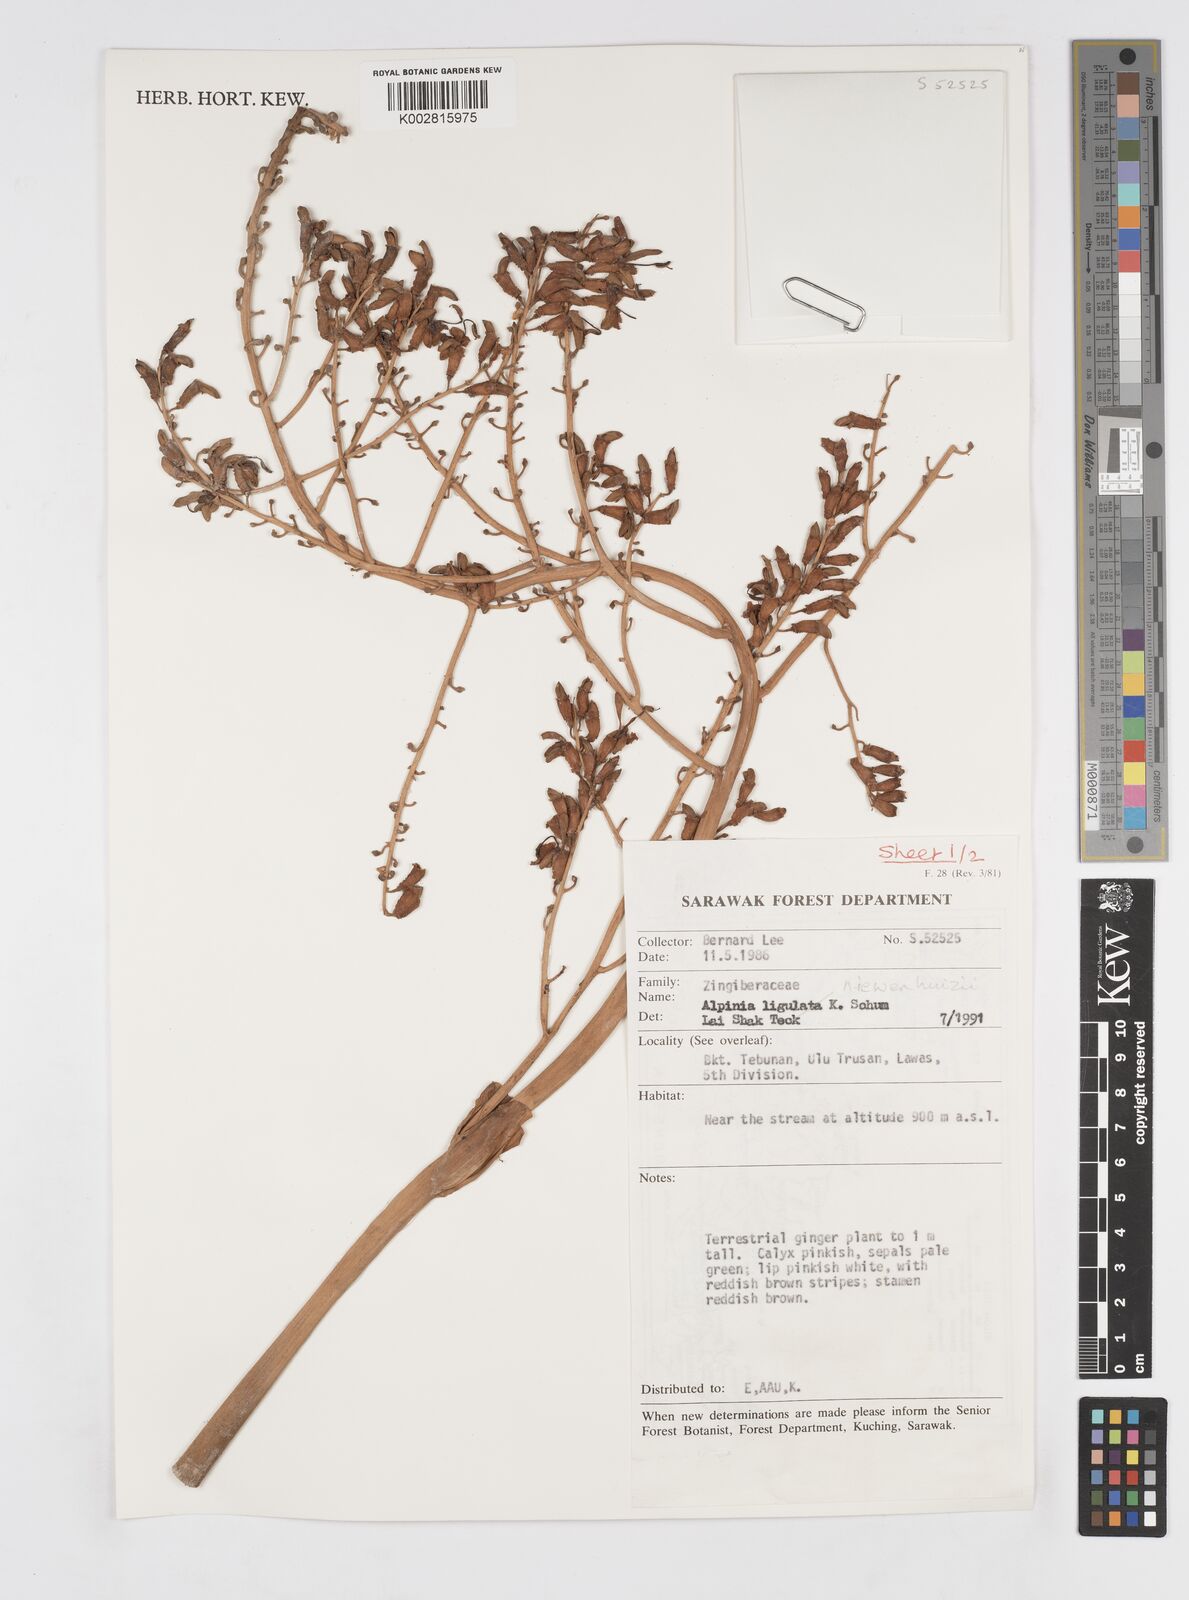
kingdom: Plantae
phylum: Tracheophyta
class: Liliopsida
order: Zingiberales
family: Zingiberaceae
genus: Alpinia
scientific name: Alpinia nieuwenhuizii
